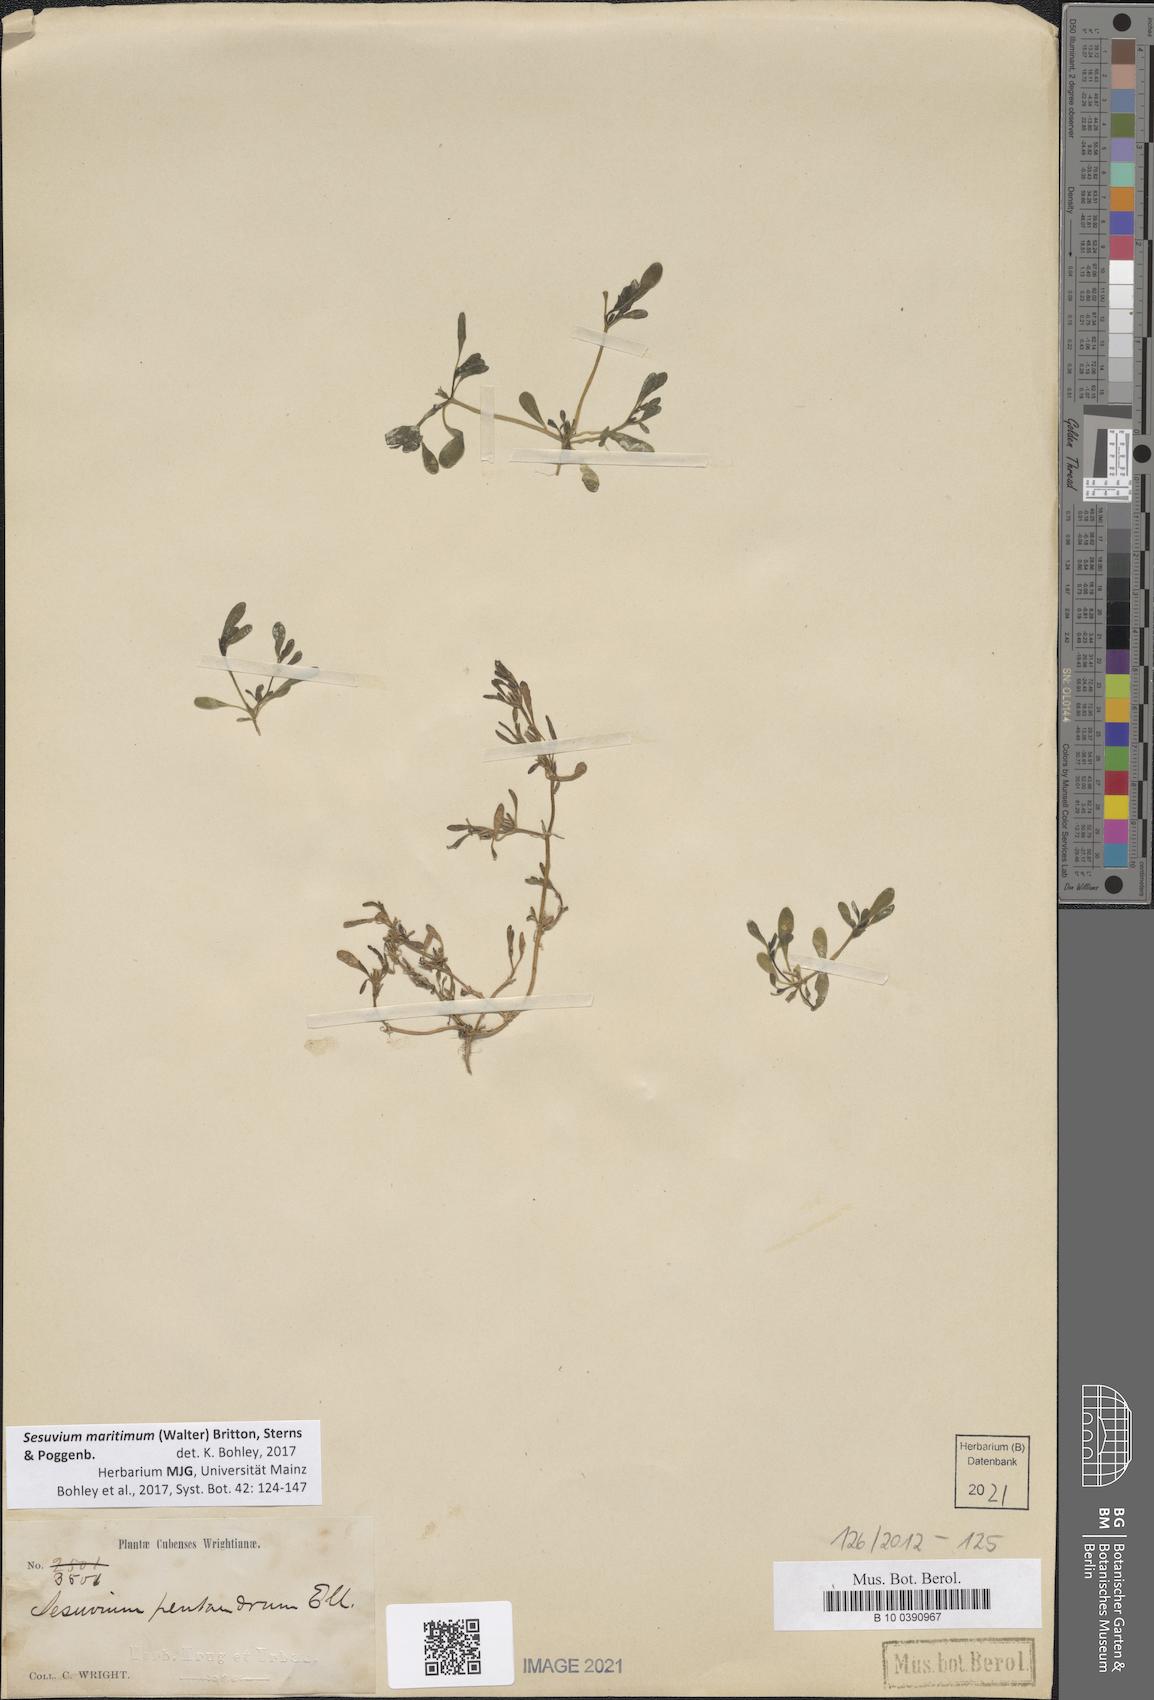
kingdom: Plantae
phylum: Tracheophyta
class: Magnoliopsida
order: Caryophyllales
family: Aizoaceae
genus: Sesuvium
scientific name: Sesuvium maritimum
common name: Slender sea-purslane
